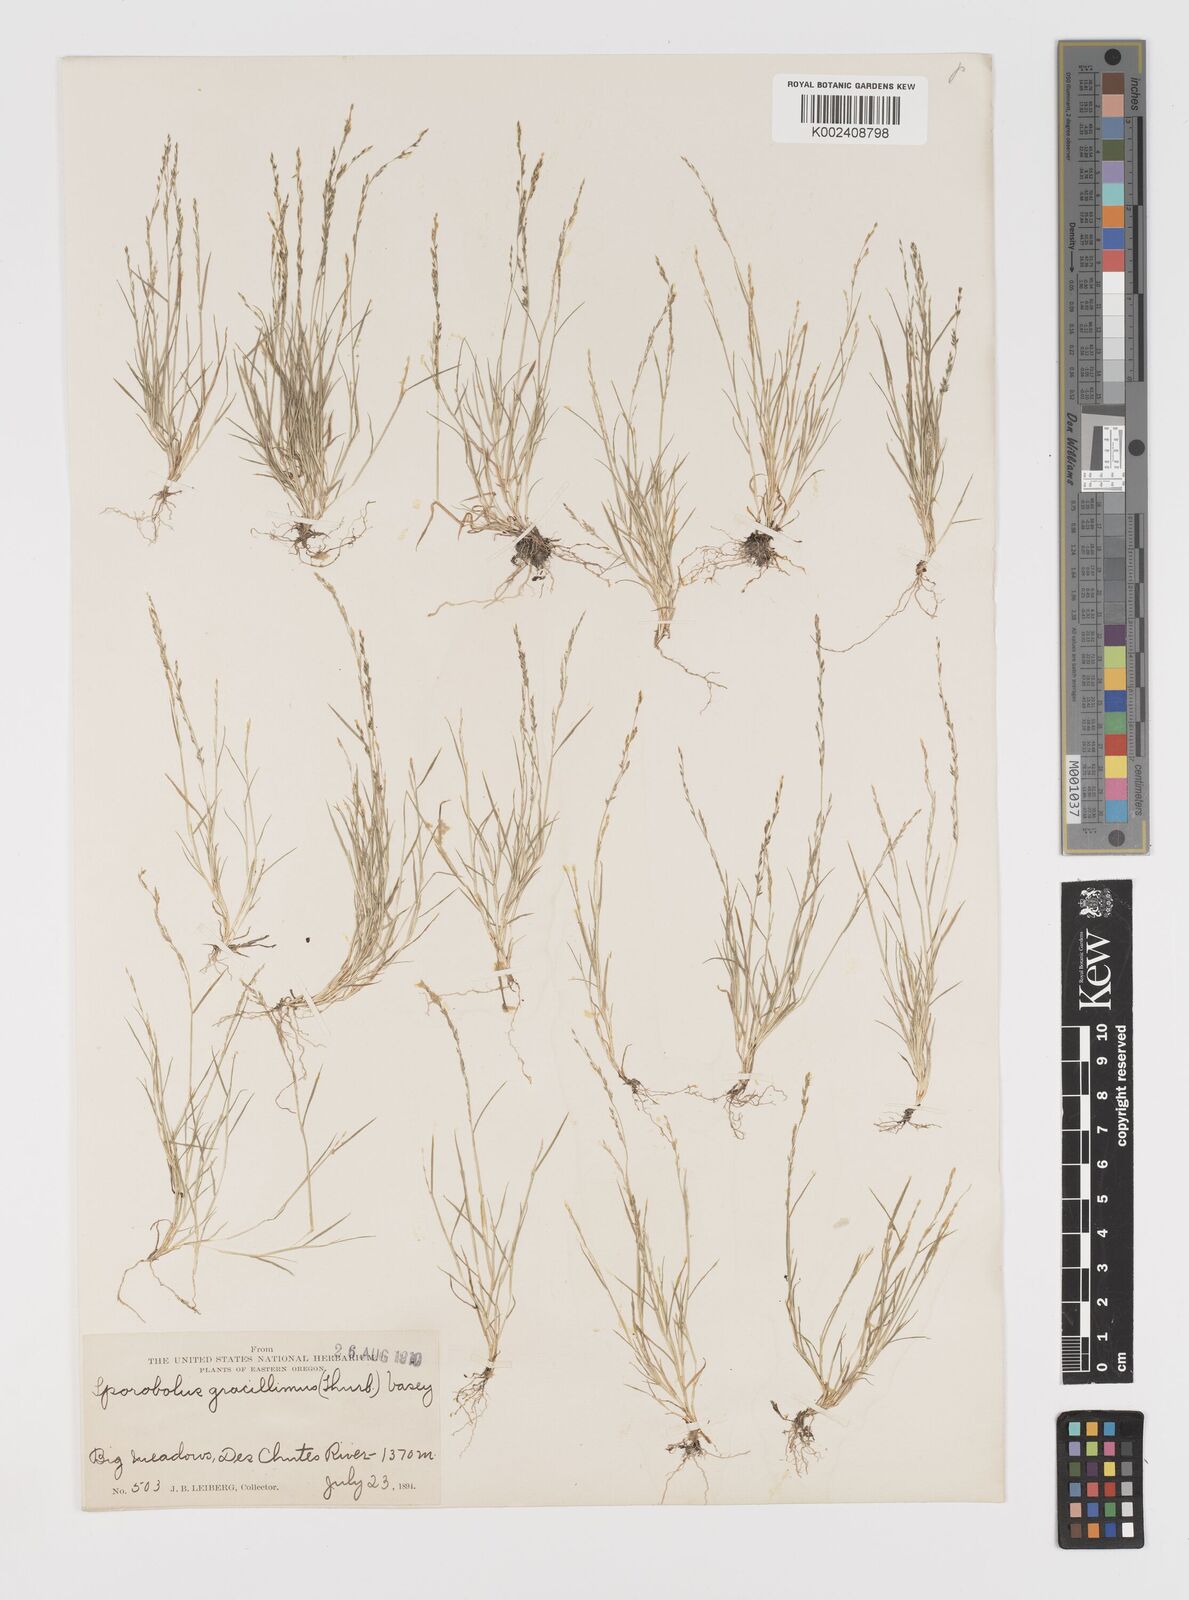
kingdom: Plantae
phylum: Tracheophyta
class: Liliopsida
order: Poales
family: Poaceae
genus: Leptochloa
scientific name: Leptochloa mucronata
